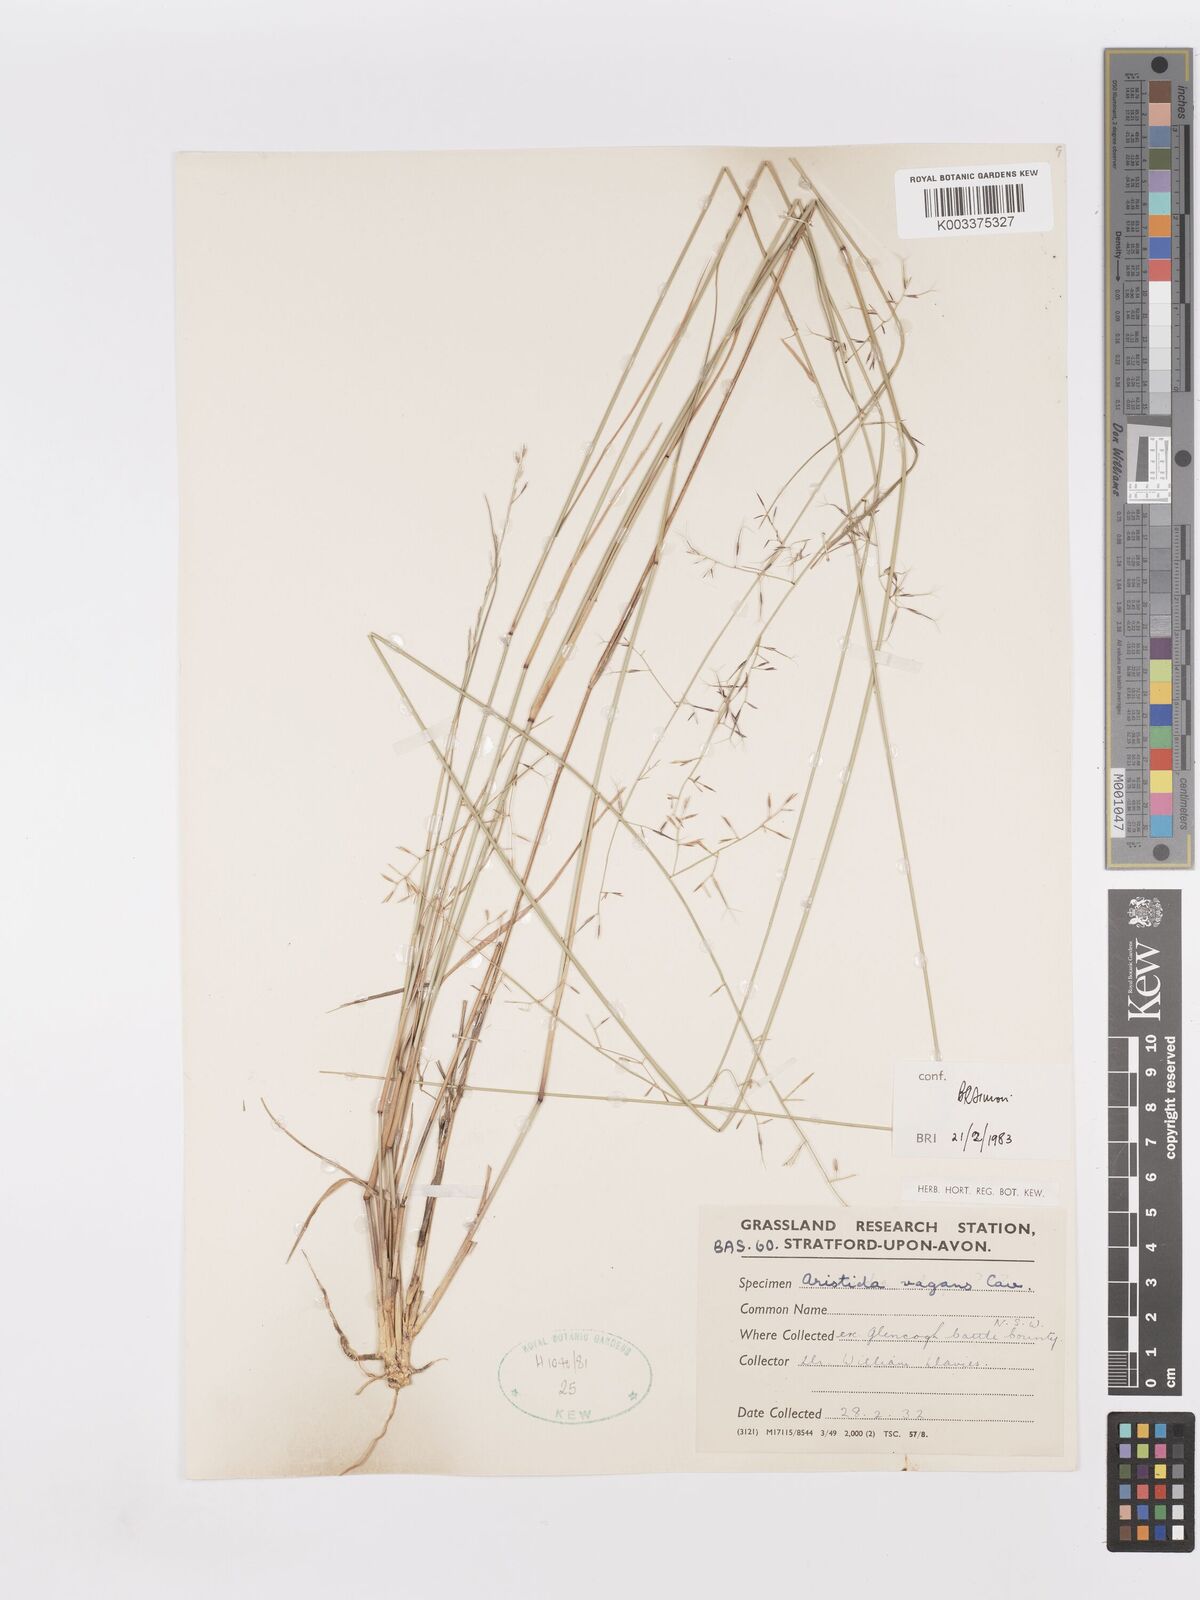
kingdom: Plantae
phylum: Tracheophyta
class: Liliopsida
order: Poales
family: Poaceae
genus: Aristida
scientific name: Aristida vagans
